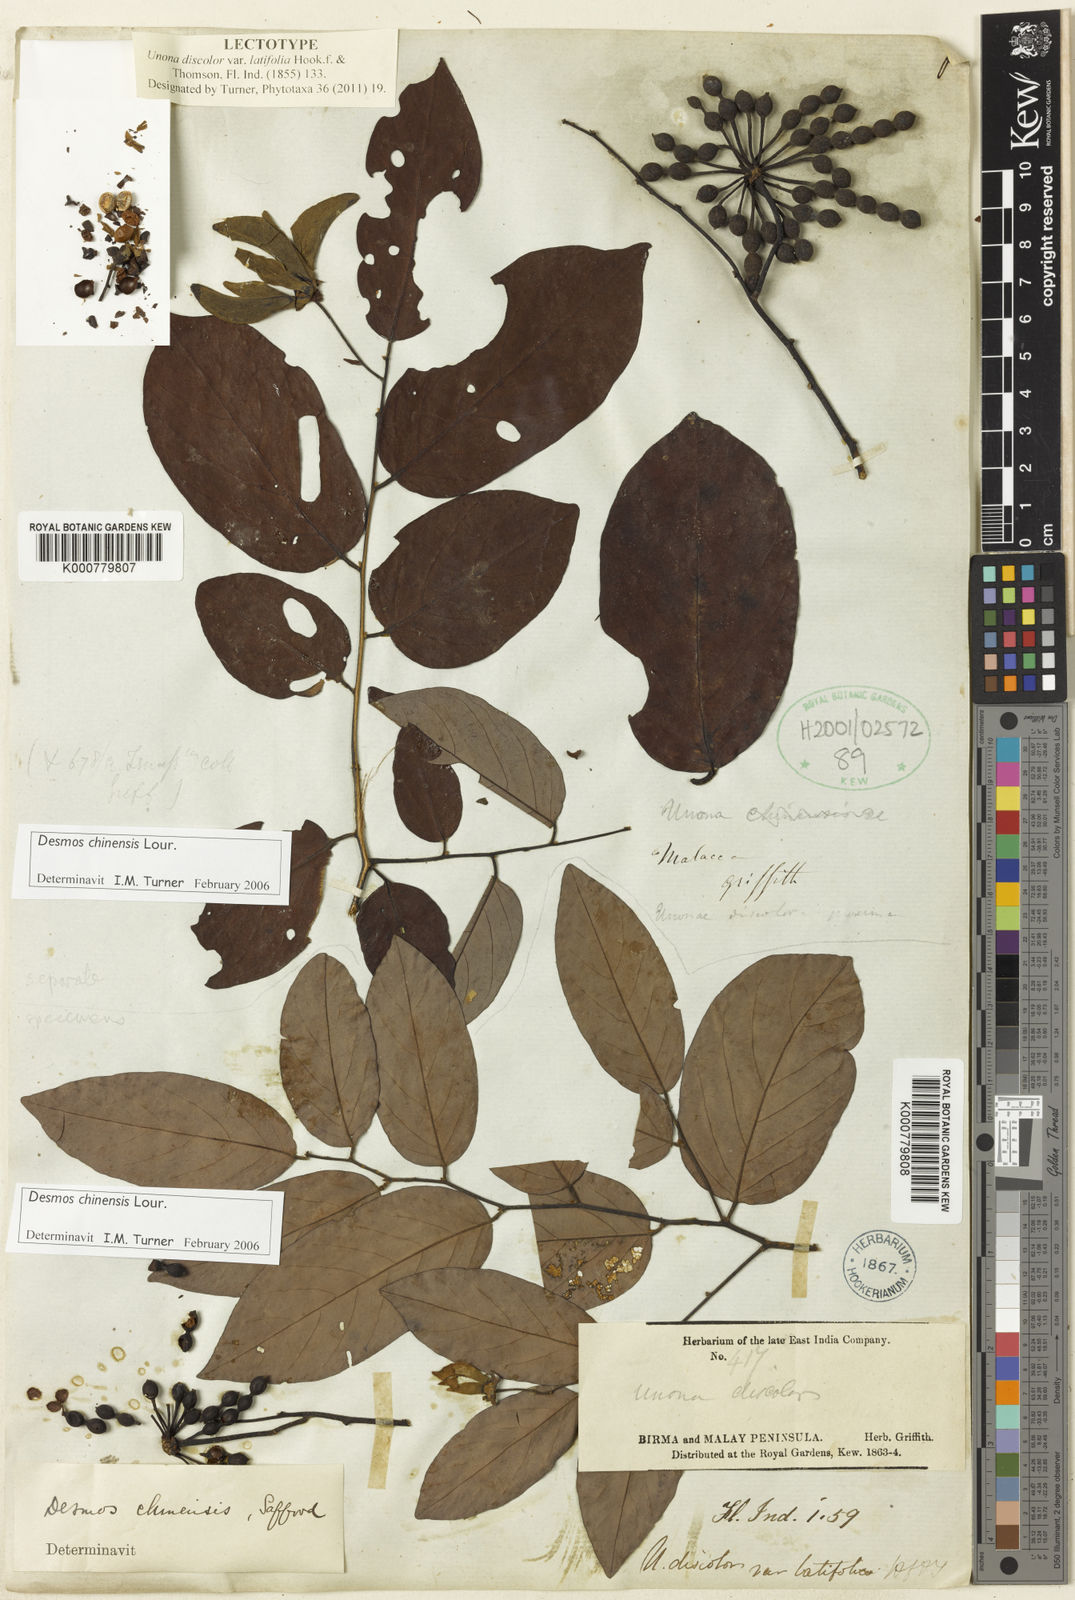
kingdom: Plantae
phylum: Tracheophyta
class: Magnoliopsida
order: Magnoliales
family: Annonaceae
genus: Desmos
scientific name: Desmos chinensis
